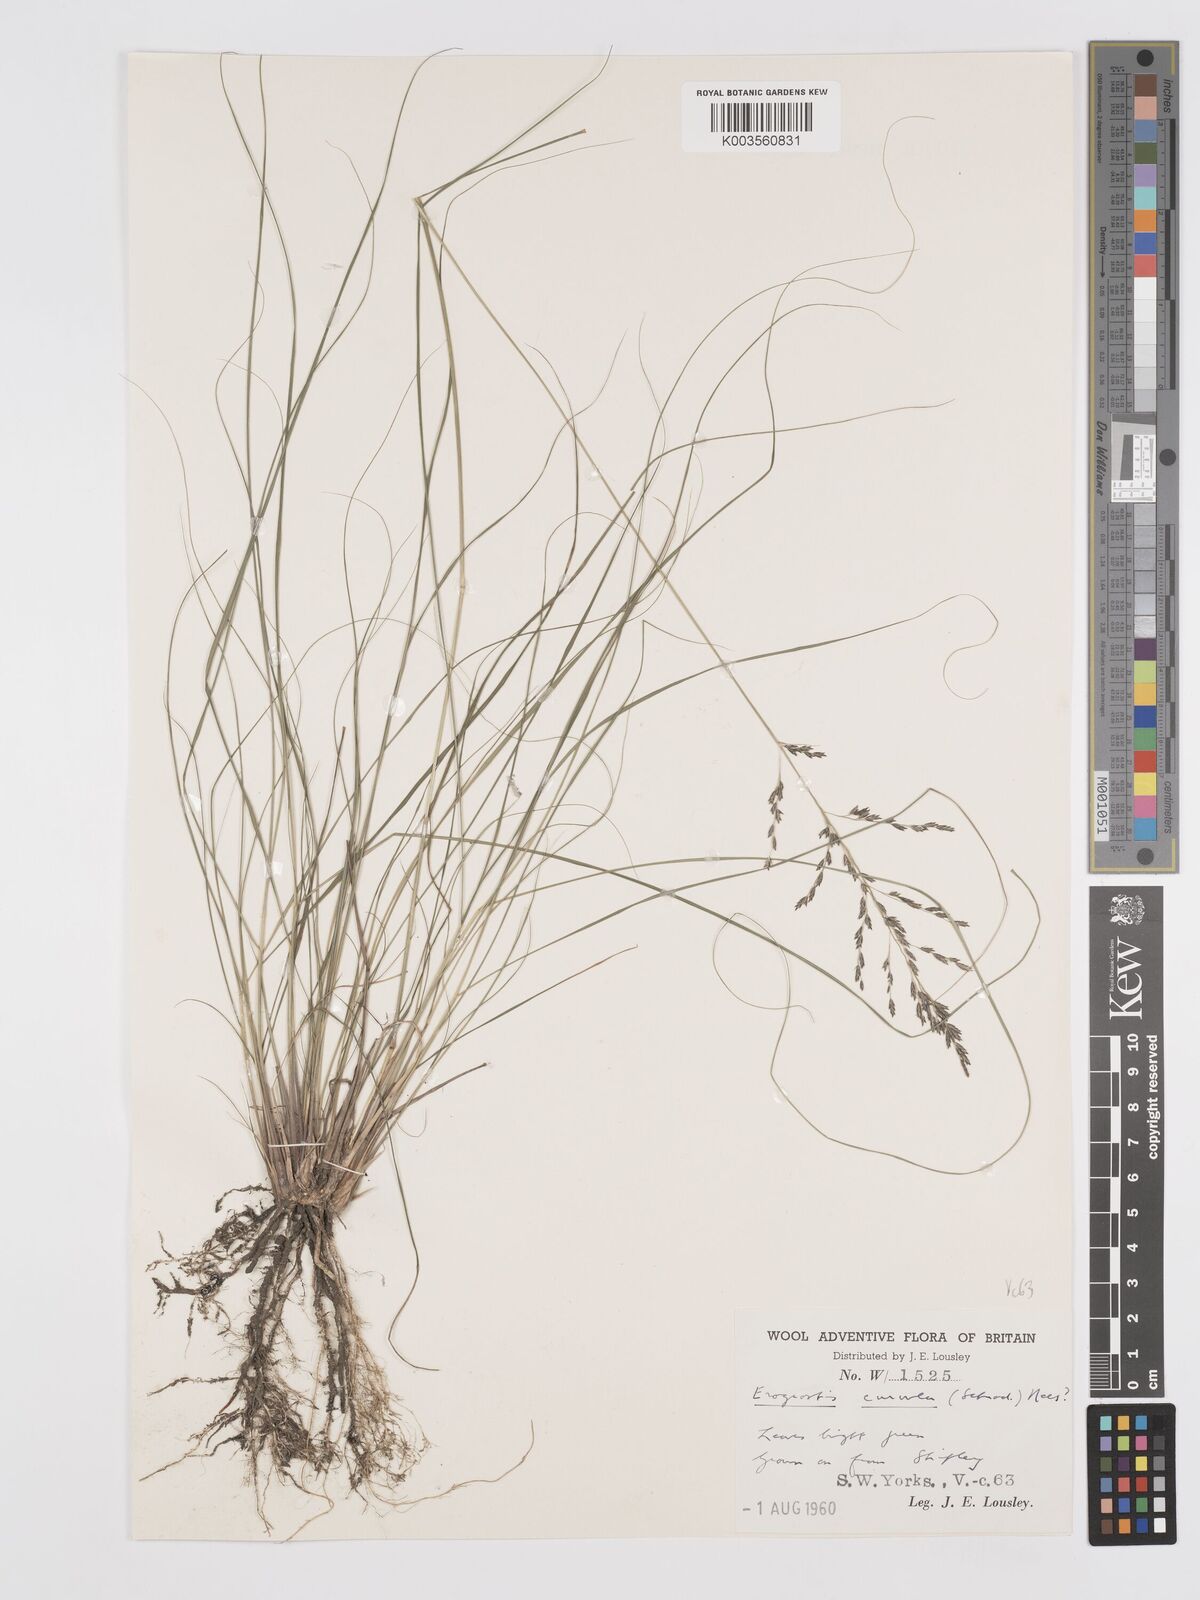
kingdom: Plantae
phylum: Tracheophyta
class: Liliopsida
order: Poales
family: Poaceae
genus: Eragrostis
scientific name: Eragrostis curvula
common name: African love-grass
